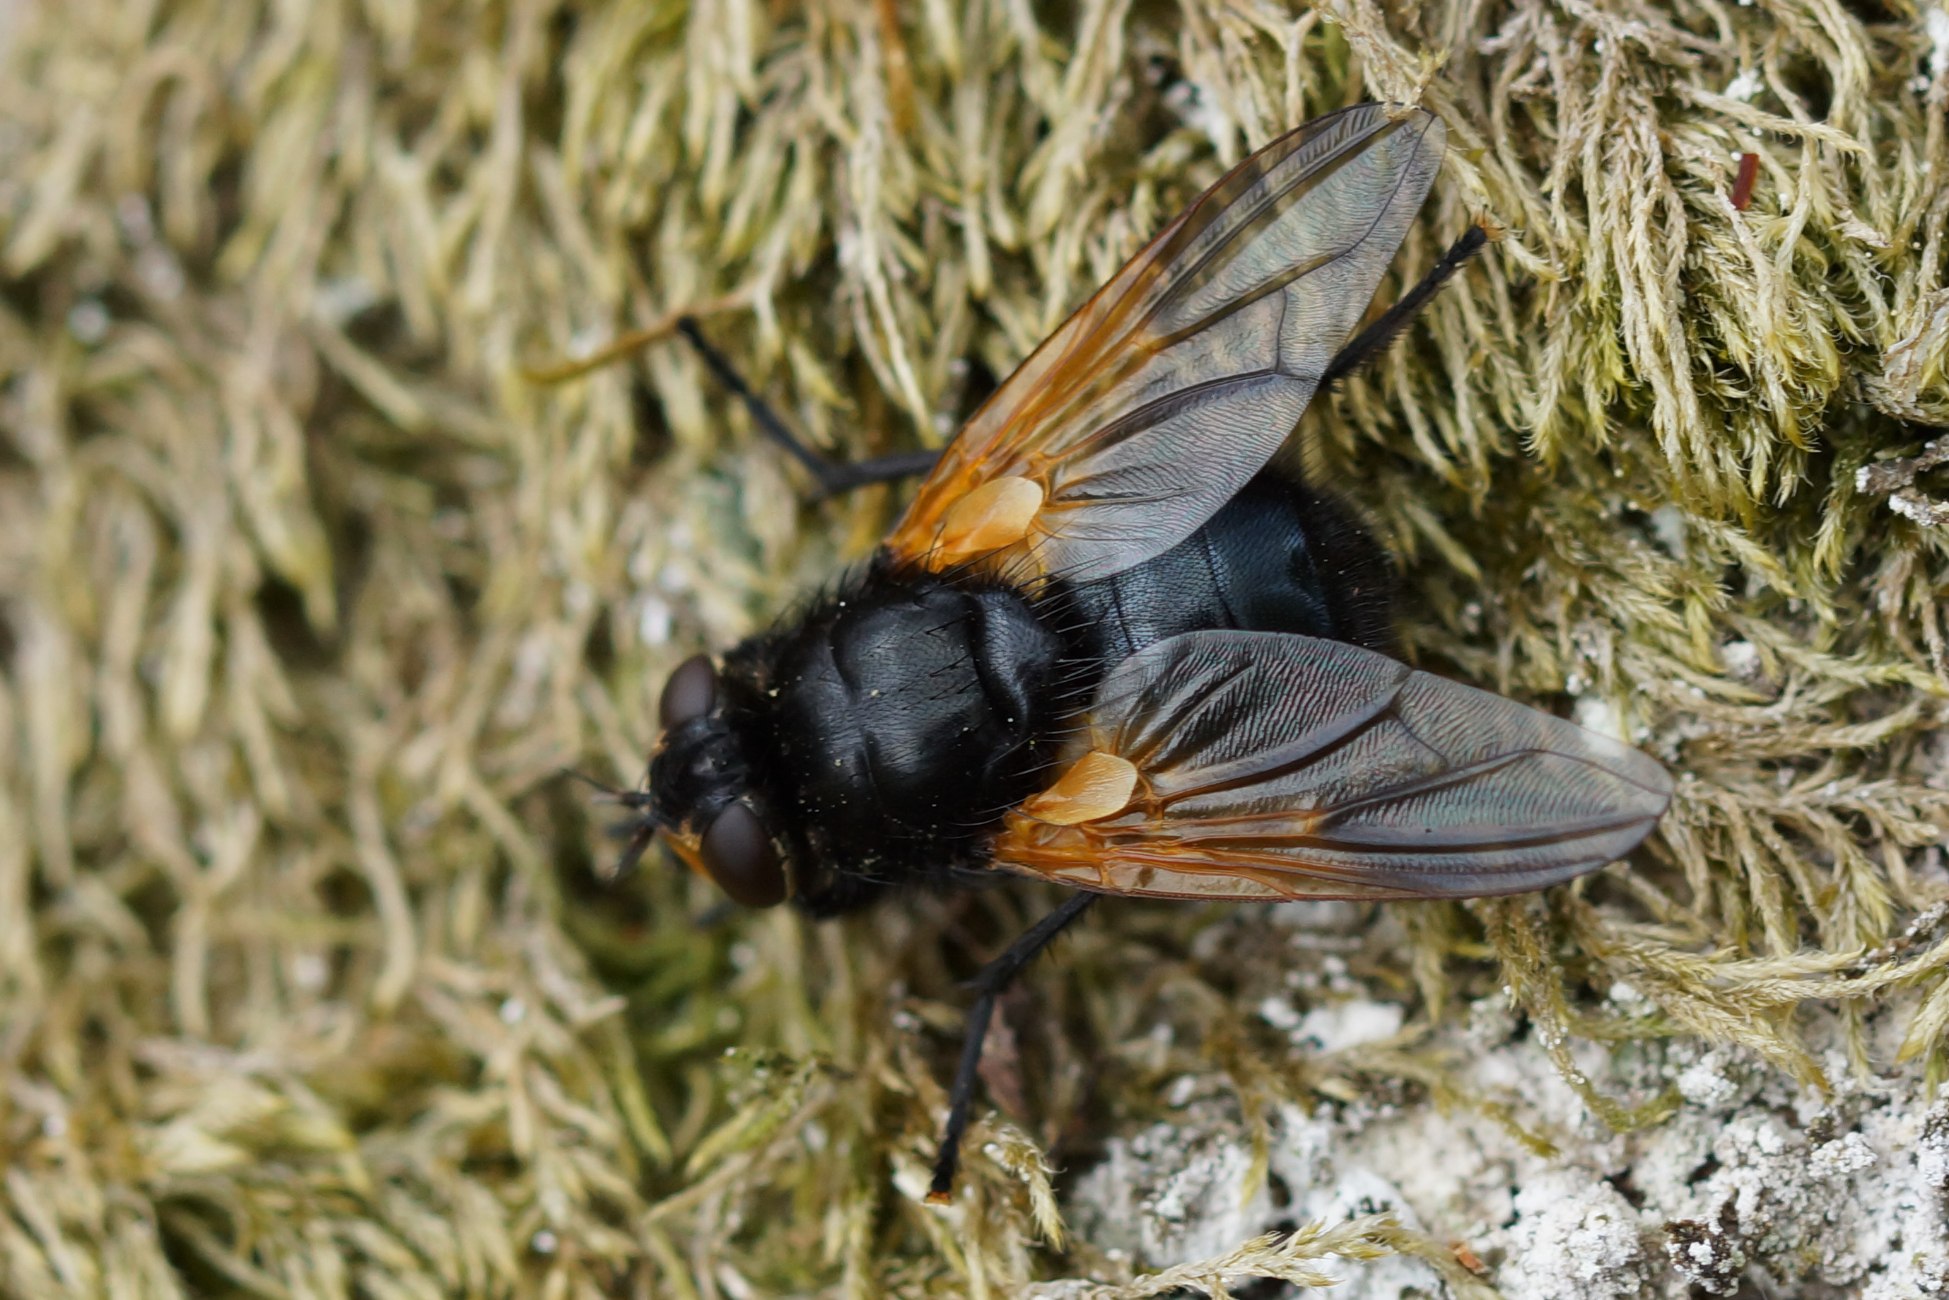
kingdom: Animalia
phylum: Arthropoda
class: Insecta
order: Diptera
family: Muscidae
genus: Mesembrina
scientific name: Mesembrina meridiana
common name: Gulvinget flue
